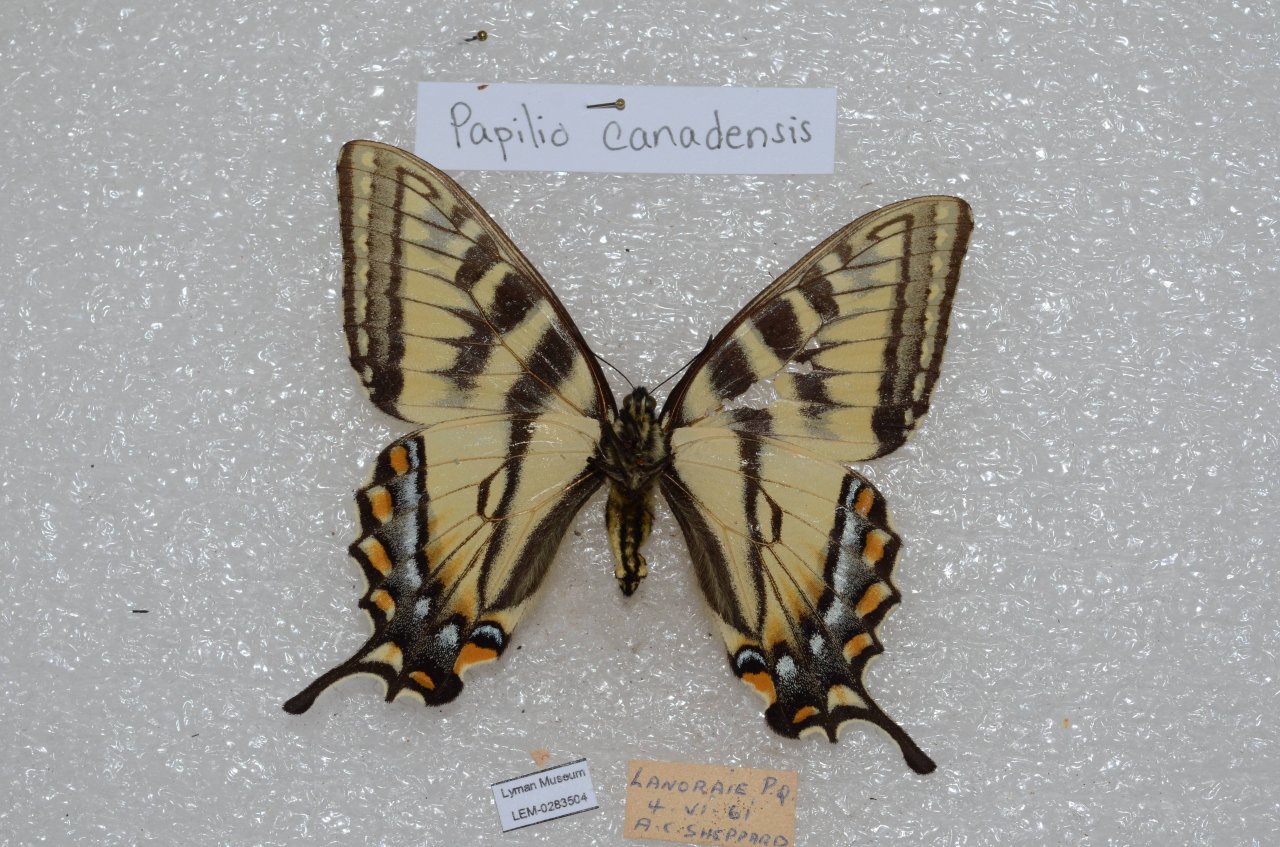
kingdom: Animalia
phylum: Arthropoda
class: Insecta
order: Lepidoptera
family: Papilionidae
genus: Pterourus
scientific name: Pterourus canadensis
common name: Canadian Tiger Swallowtail
